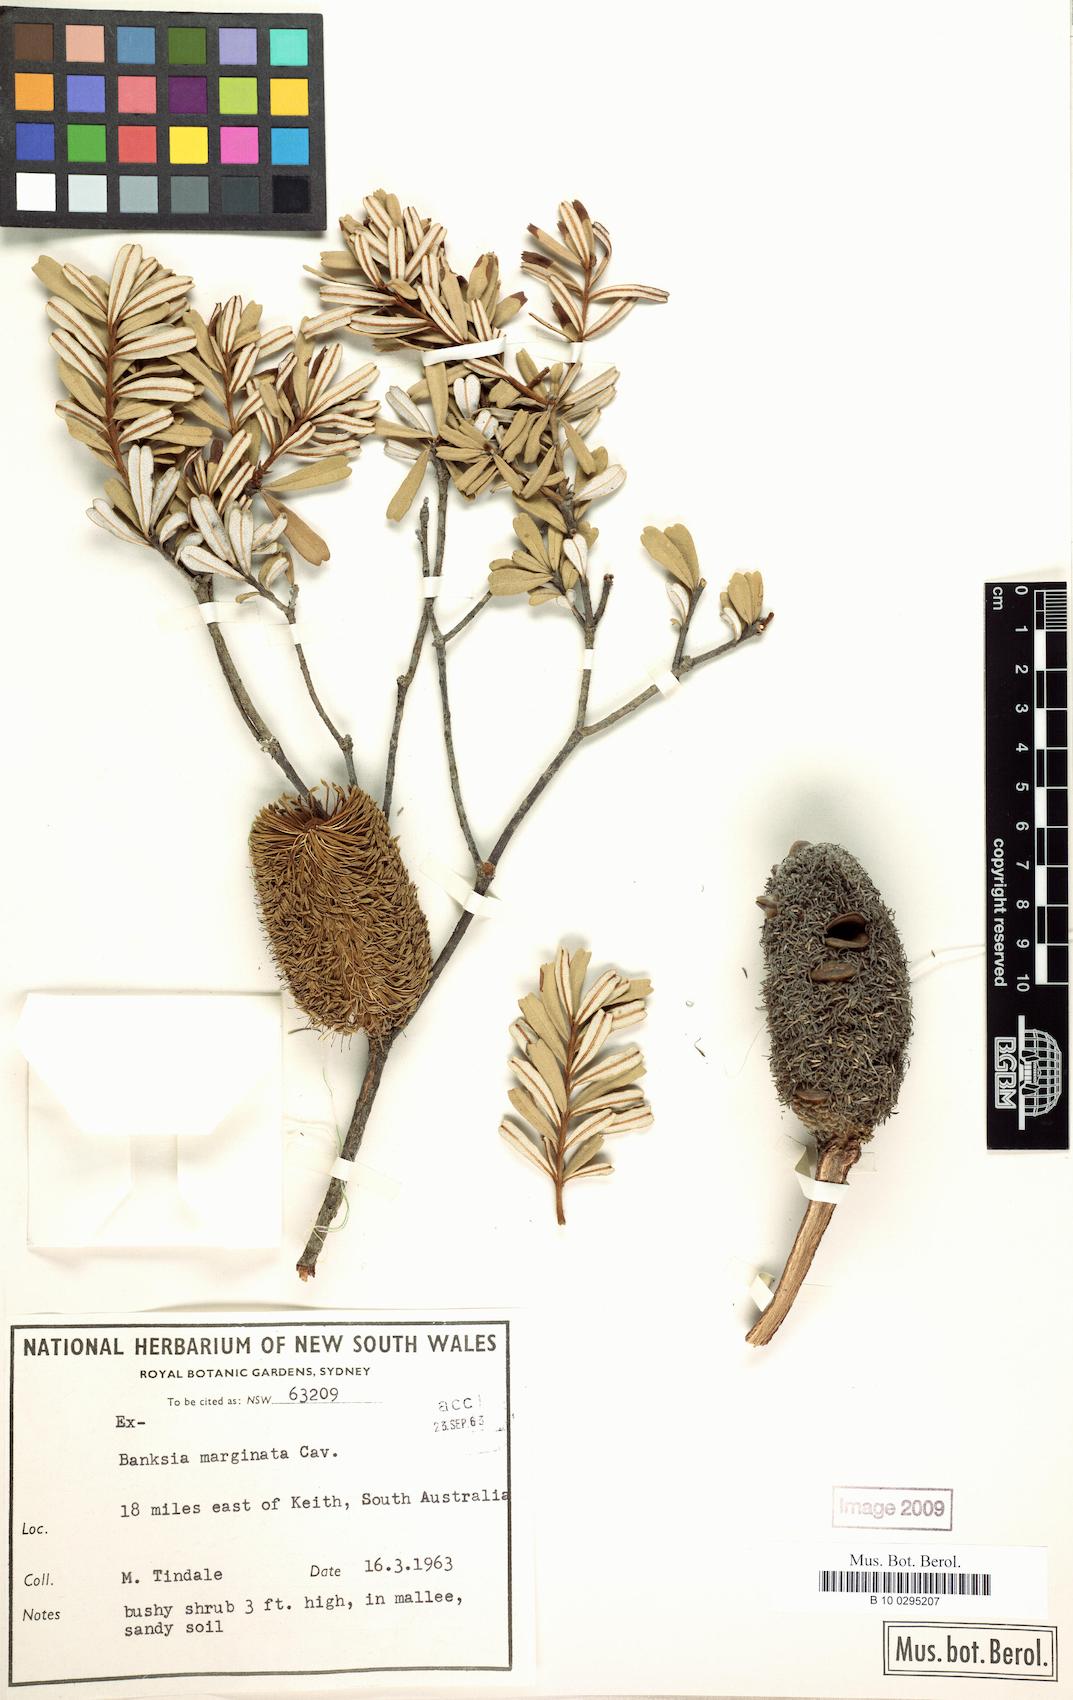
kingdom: Plantae
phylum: Tracheophyta
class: Magnoliopsida
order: Proteales
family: Proteaceae
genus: Banksia
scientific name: Banksia marginata
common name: Silver banksia
